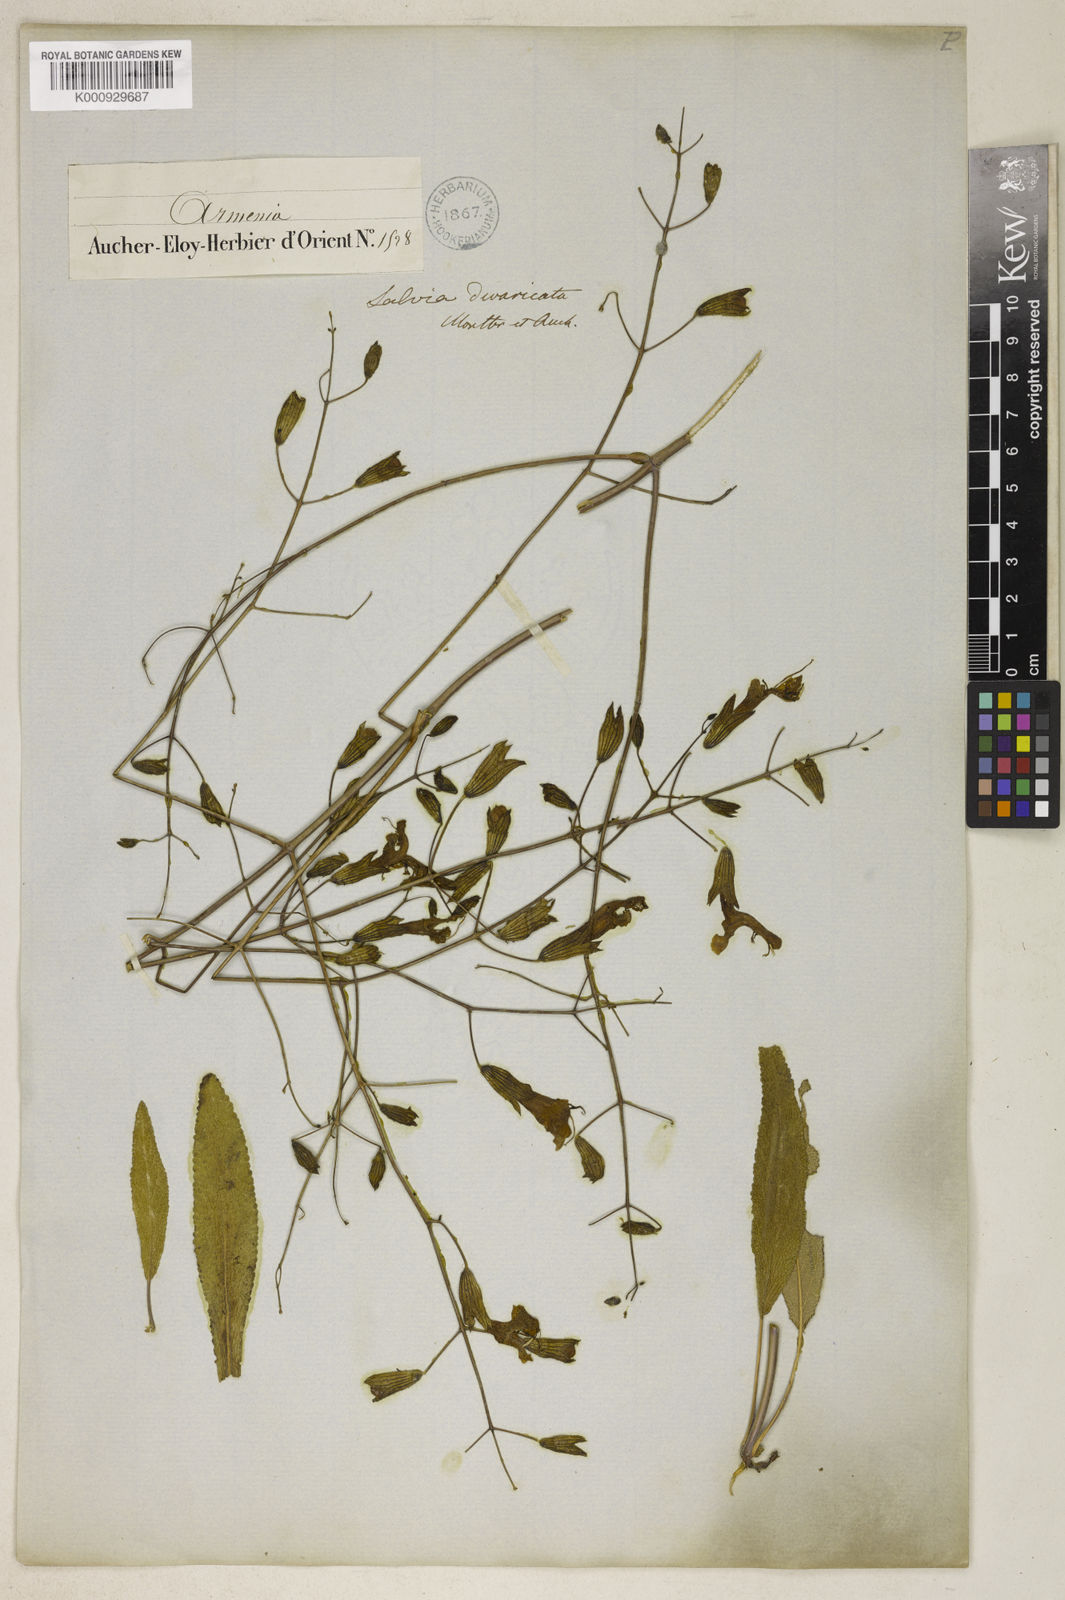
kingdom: Plantae
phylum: Tracheophyta
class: Magnoliopsida
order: Lamiales
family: Lamiaceae
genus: Salvia
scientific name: Salvia divaricata
